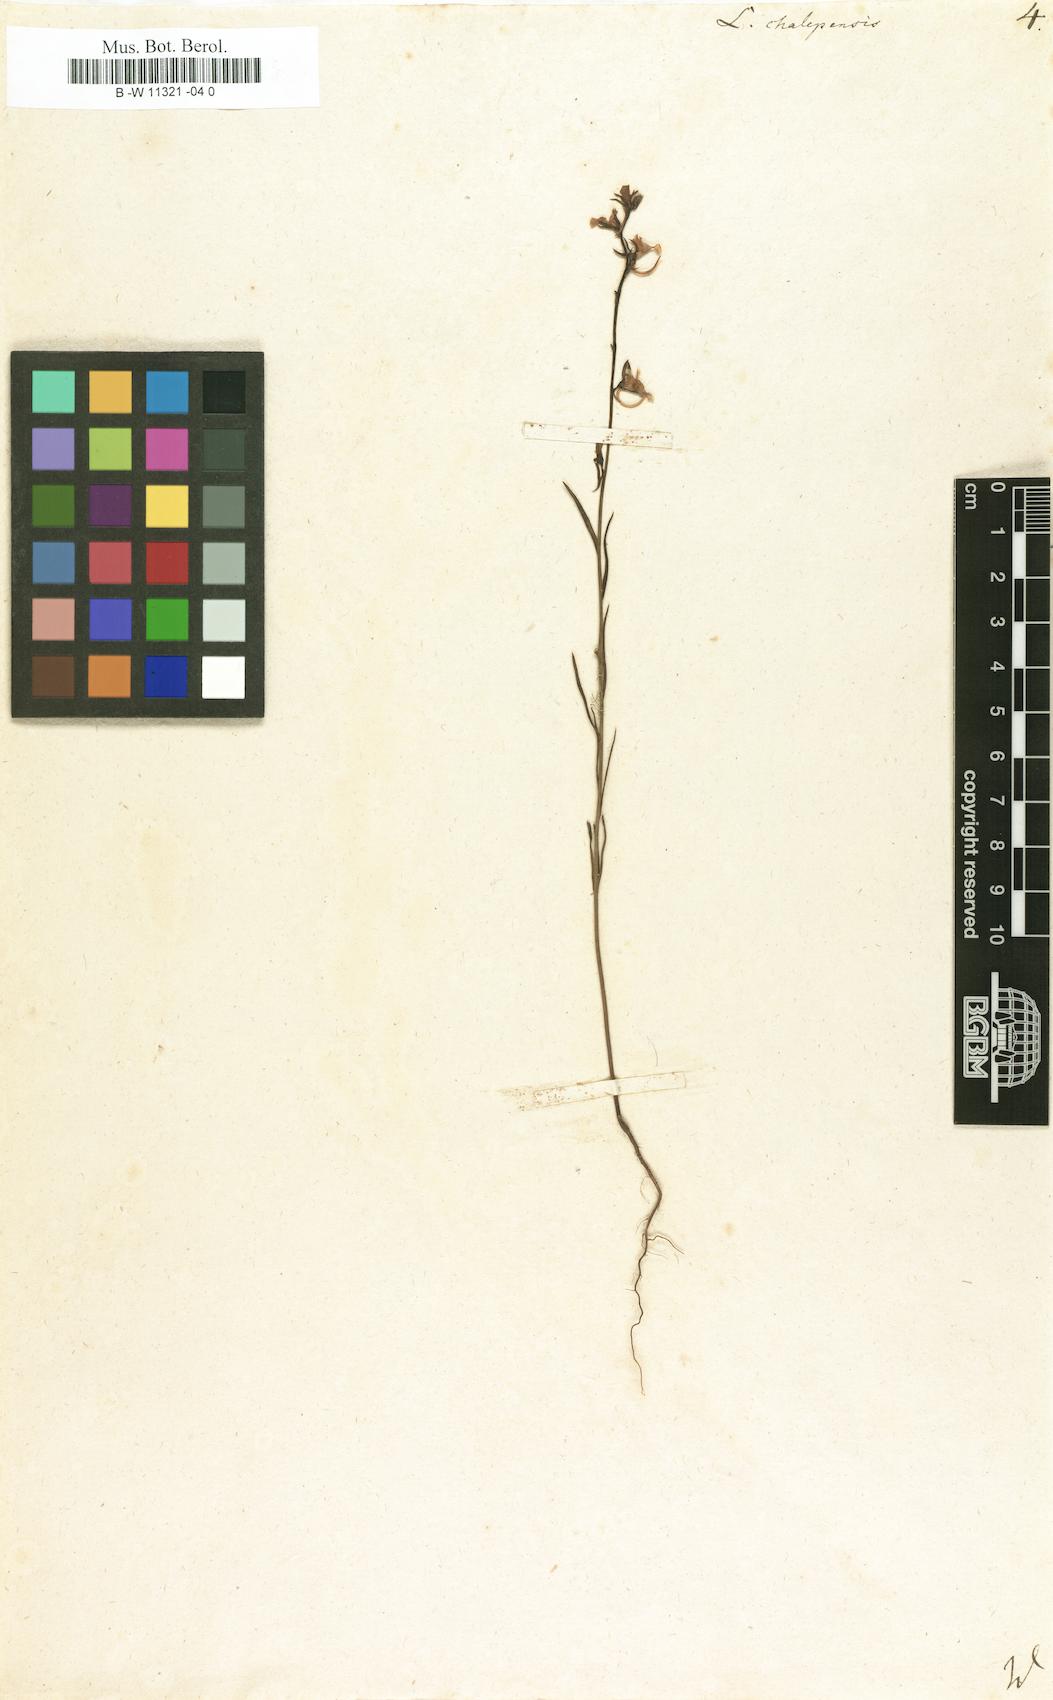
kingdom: Plantae
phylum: Tracheophyta
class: Magnoliopsida
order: Lamiales
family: Plantaginaceae
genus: Linaria
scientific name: Linaria chalepensis
